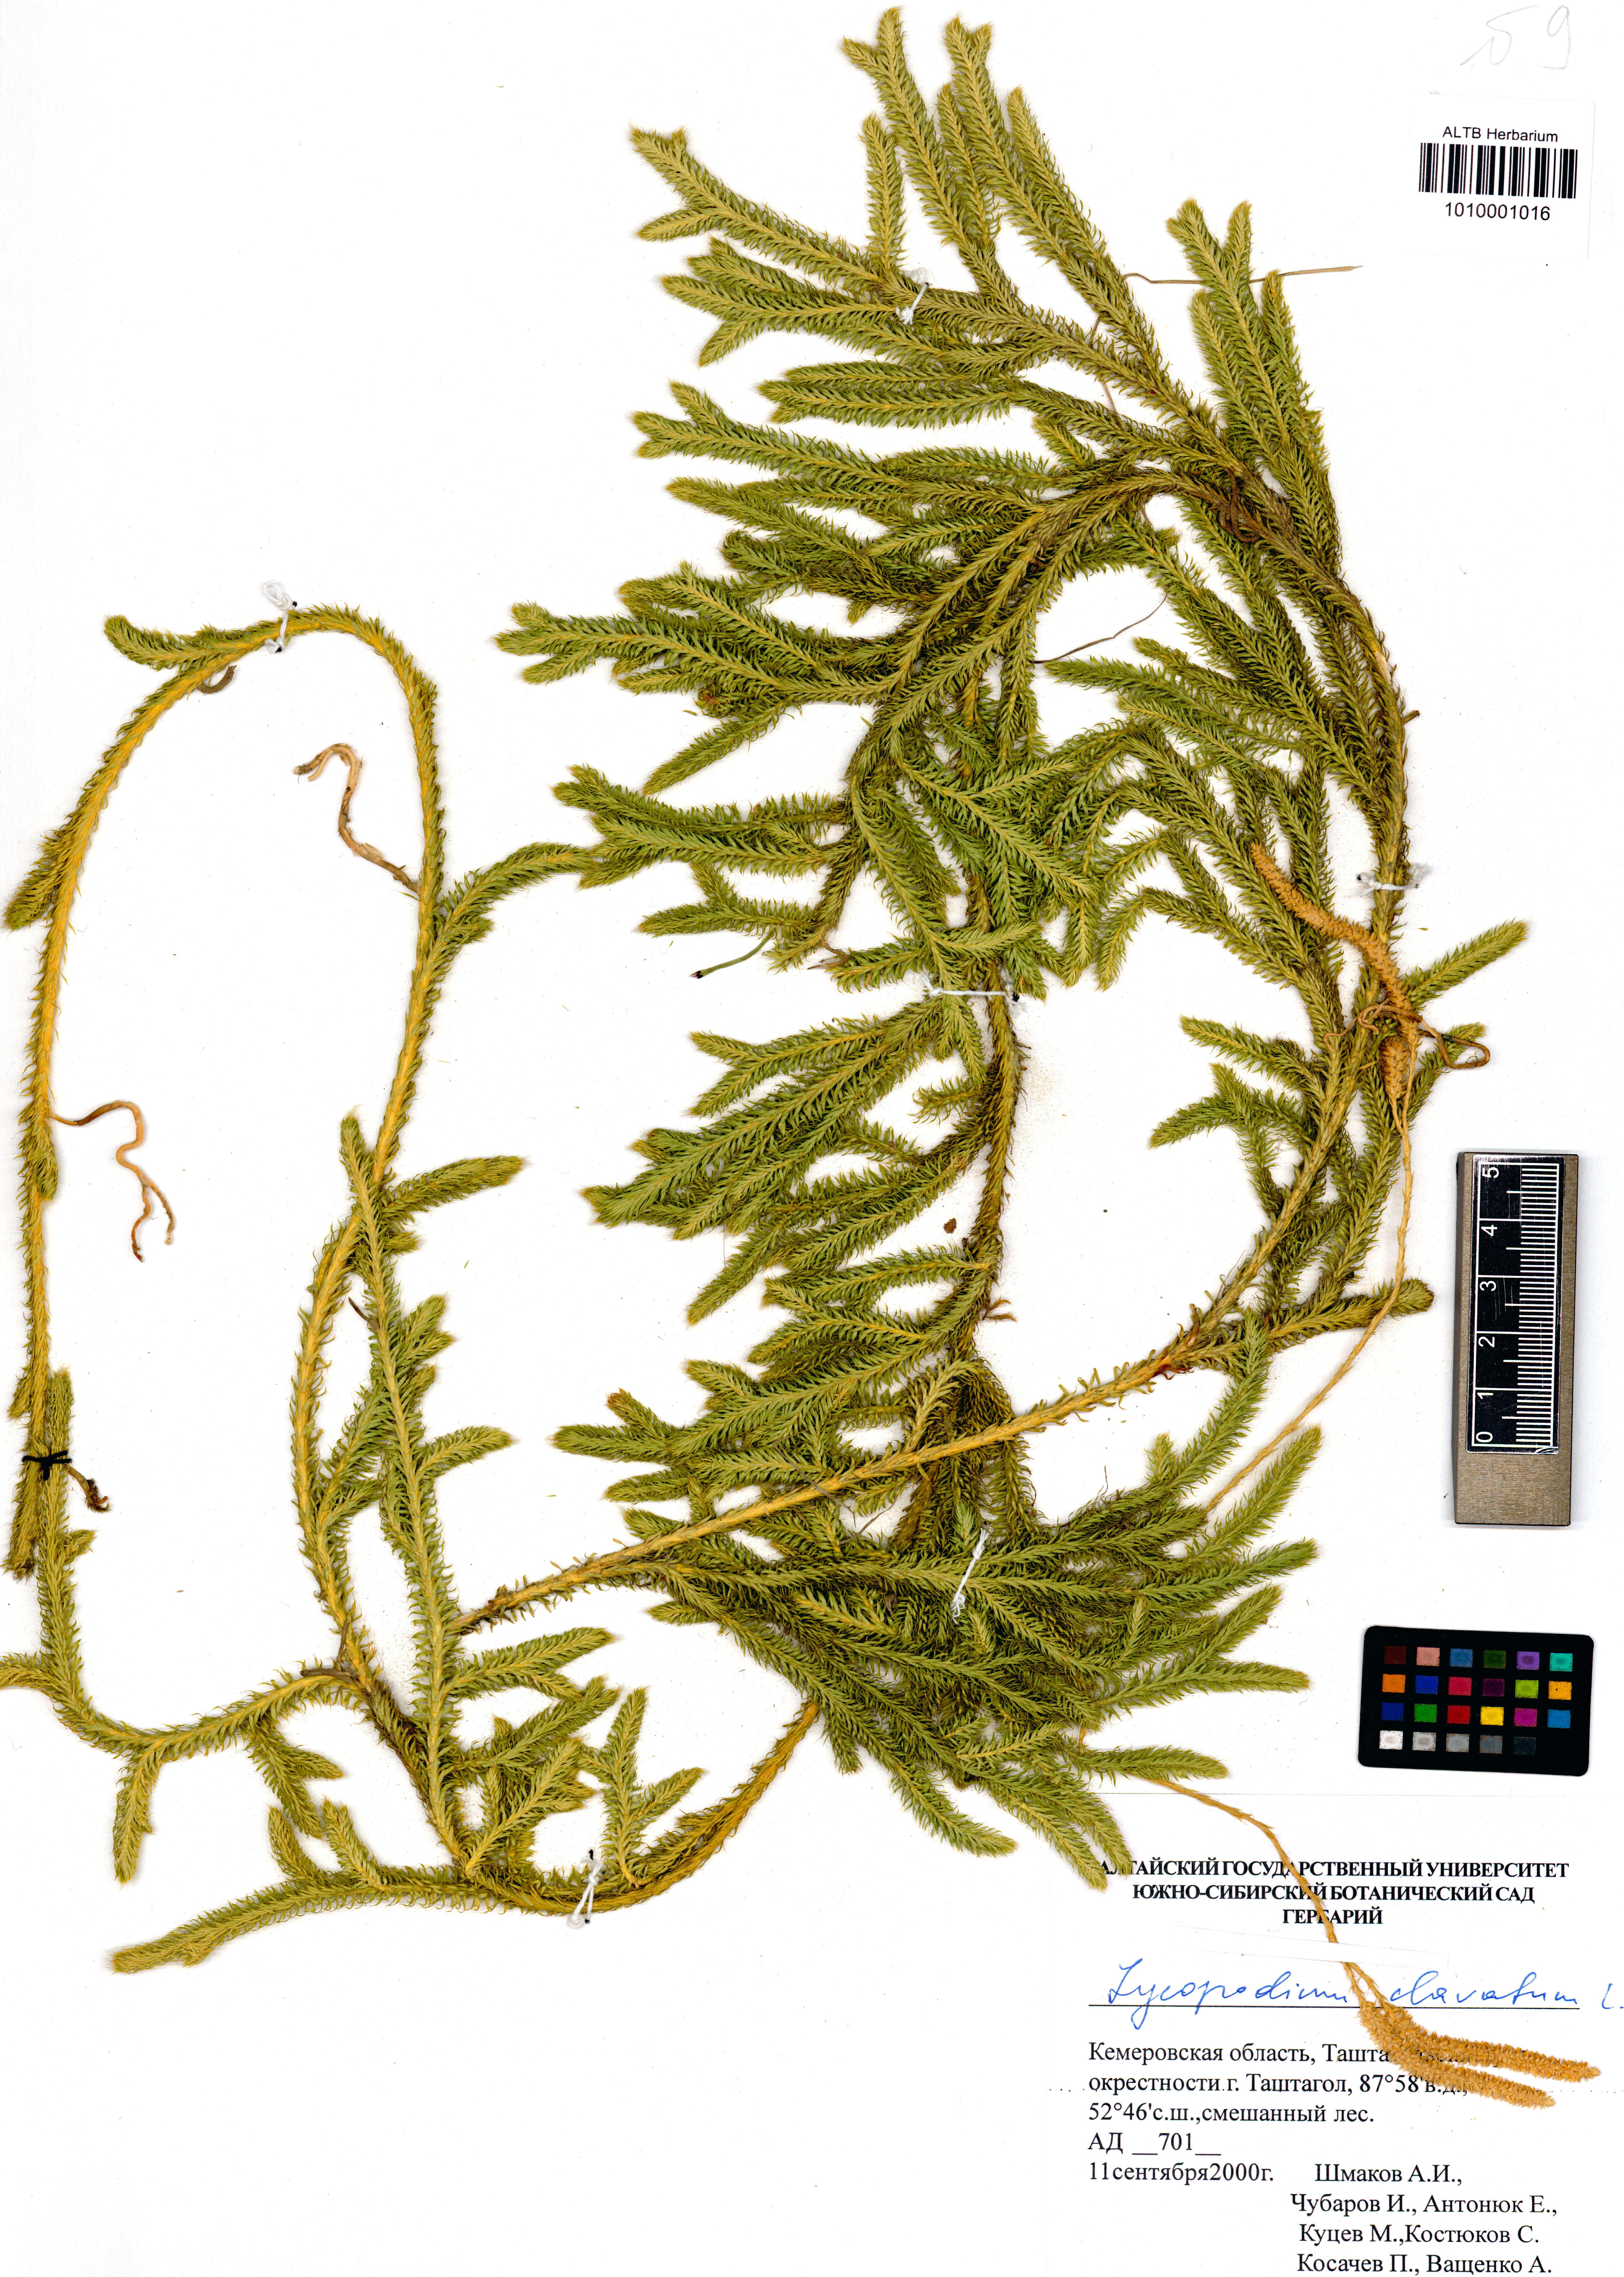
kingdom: Plantae
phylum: Tracheophyta
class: Lycopodiopsida
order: Lycopodiales
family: Lycopodiaceae
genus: Lycopodium
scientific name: Lycopodium clavatum
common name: Stag's-horn clubmoss
